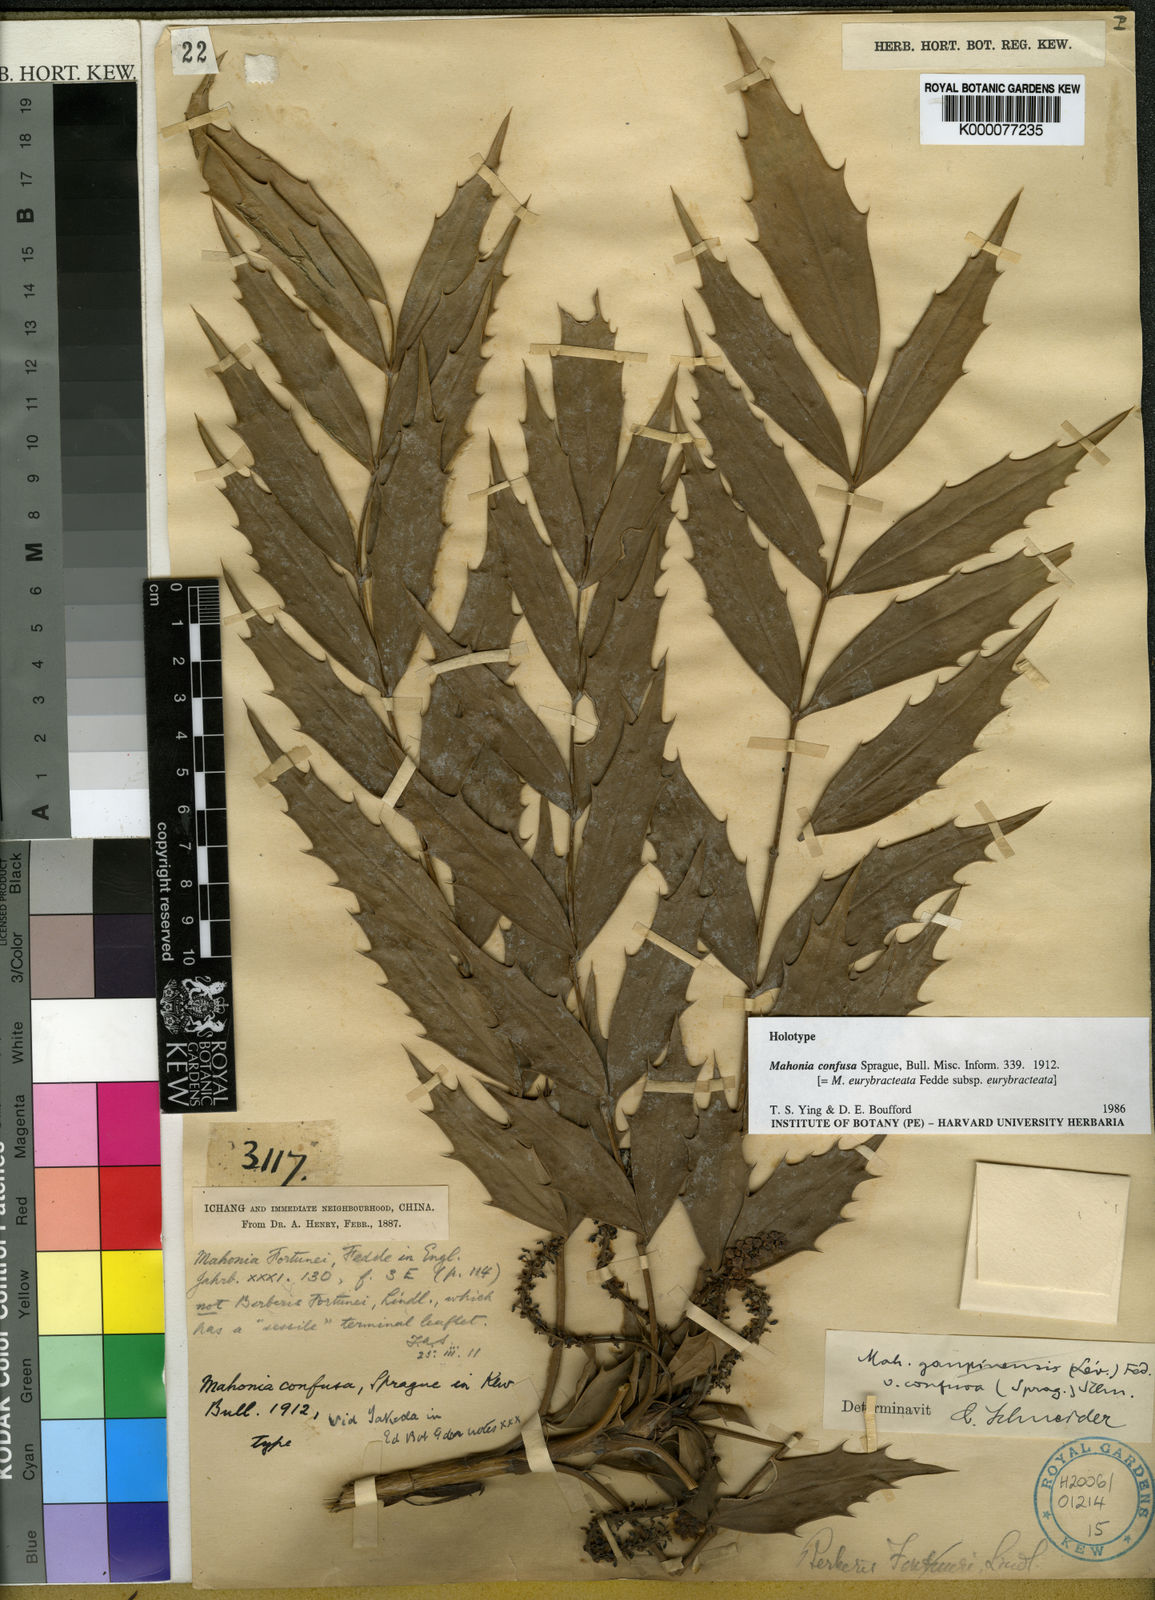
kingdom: Plantae
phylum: Tracheophyta
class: Magnoliopsida
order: Ranunculales
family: Berberidaceae
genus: Mahonia
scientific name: Mahonia eurybracteata
